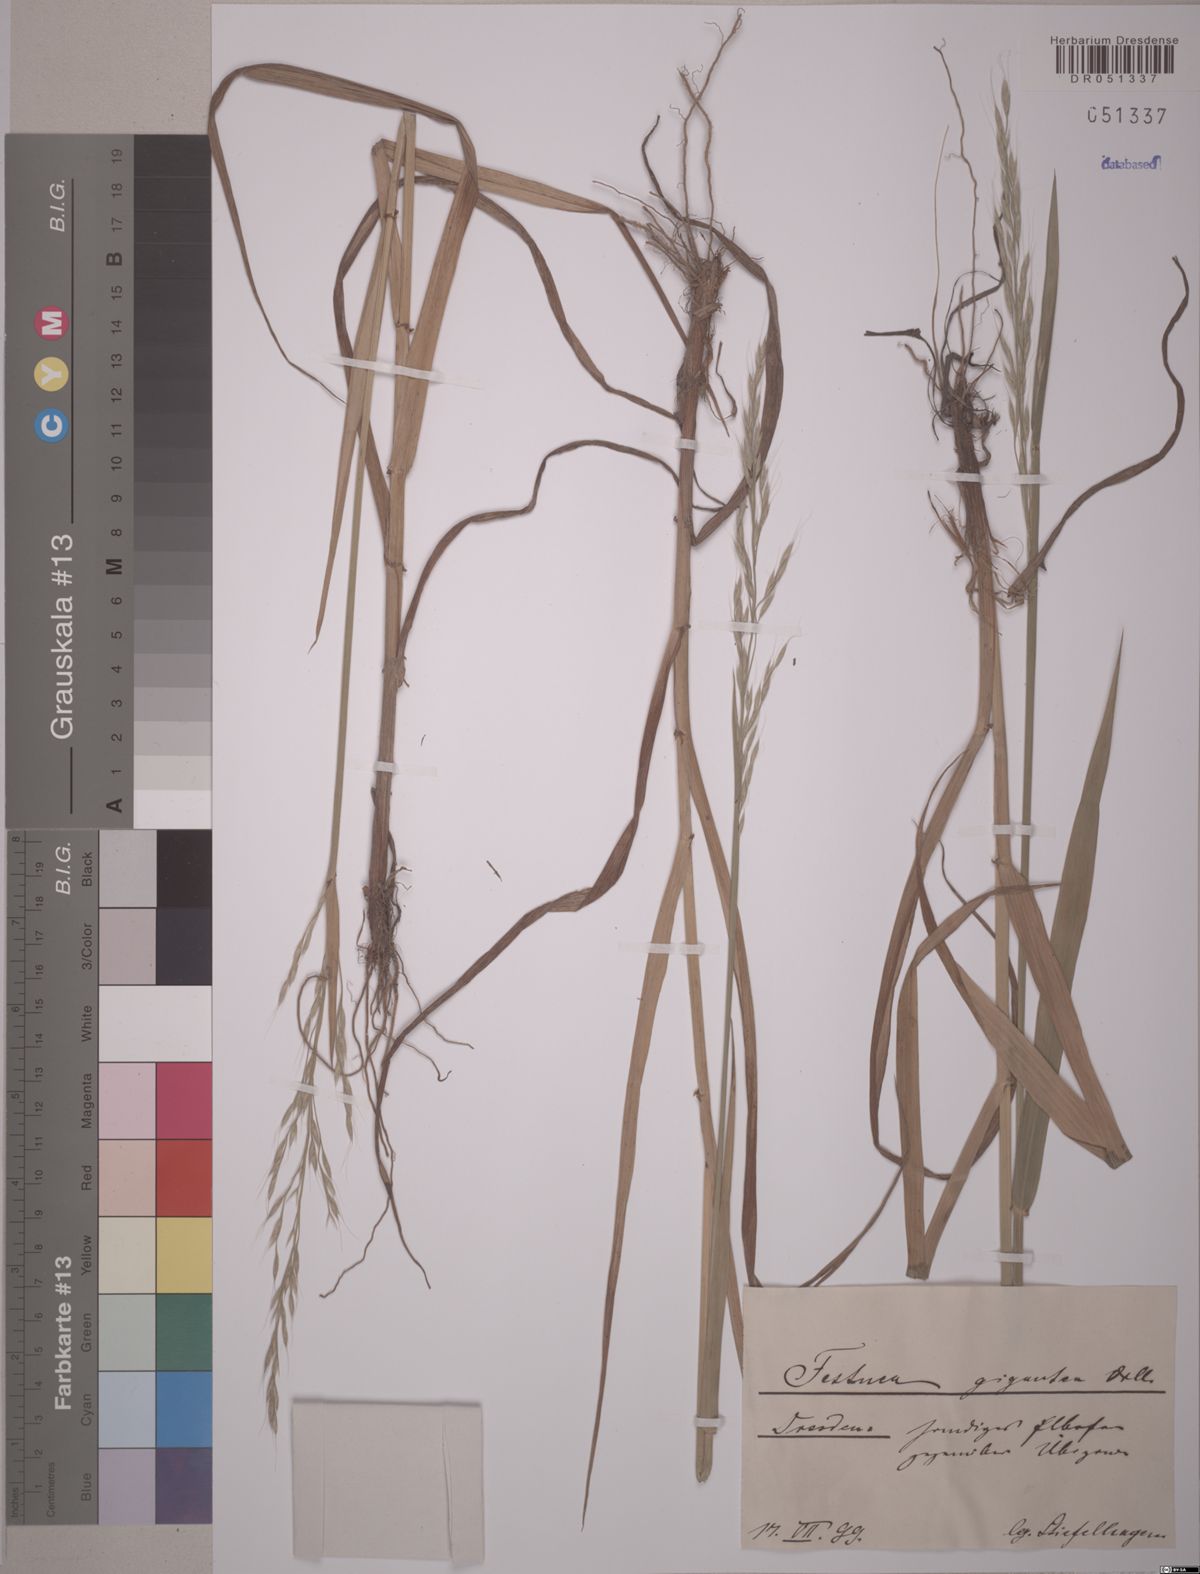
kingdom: Plantae
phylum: Tracheophyta
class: Liliopsida
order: Poales
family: Poaceae
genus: Lolium
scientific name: Lolium giganteum
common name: Giant fescue
